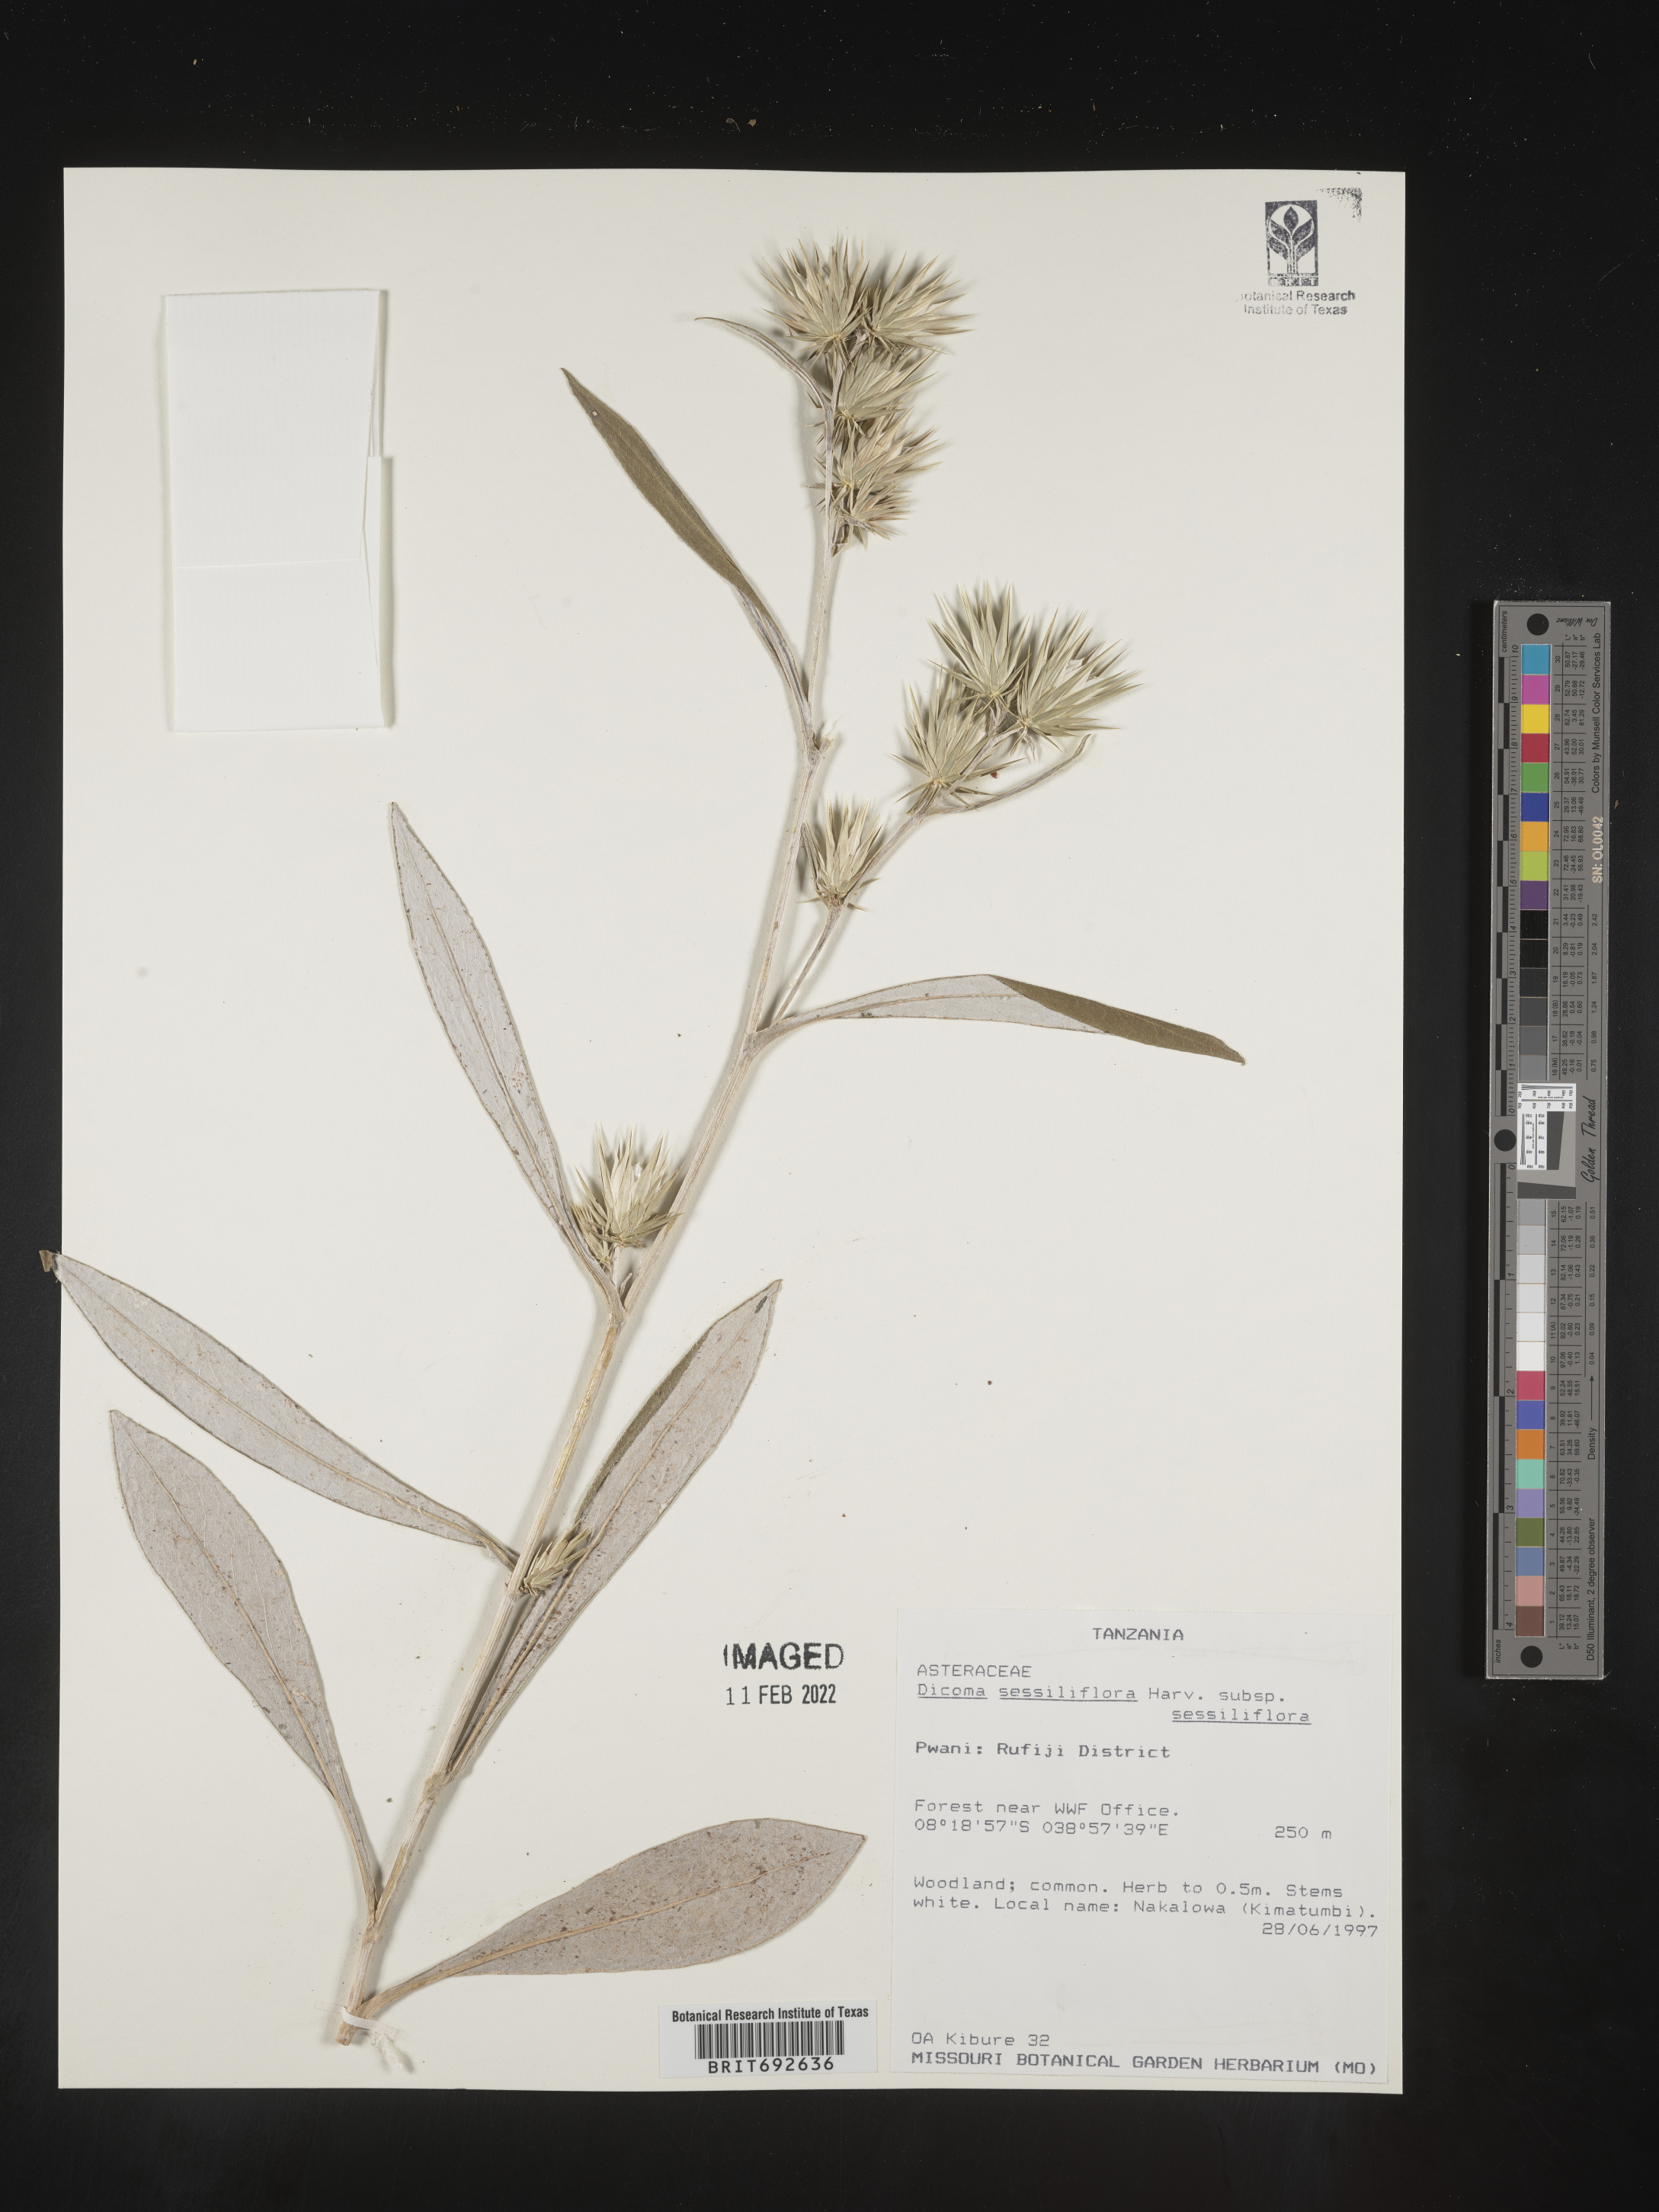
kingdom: Plantae
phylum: Tracheophyta
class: Magnoliopsida
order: Asterales
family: Asteraceae
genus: Dicoma
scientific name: Dicoma
